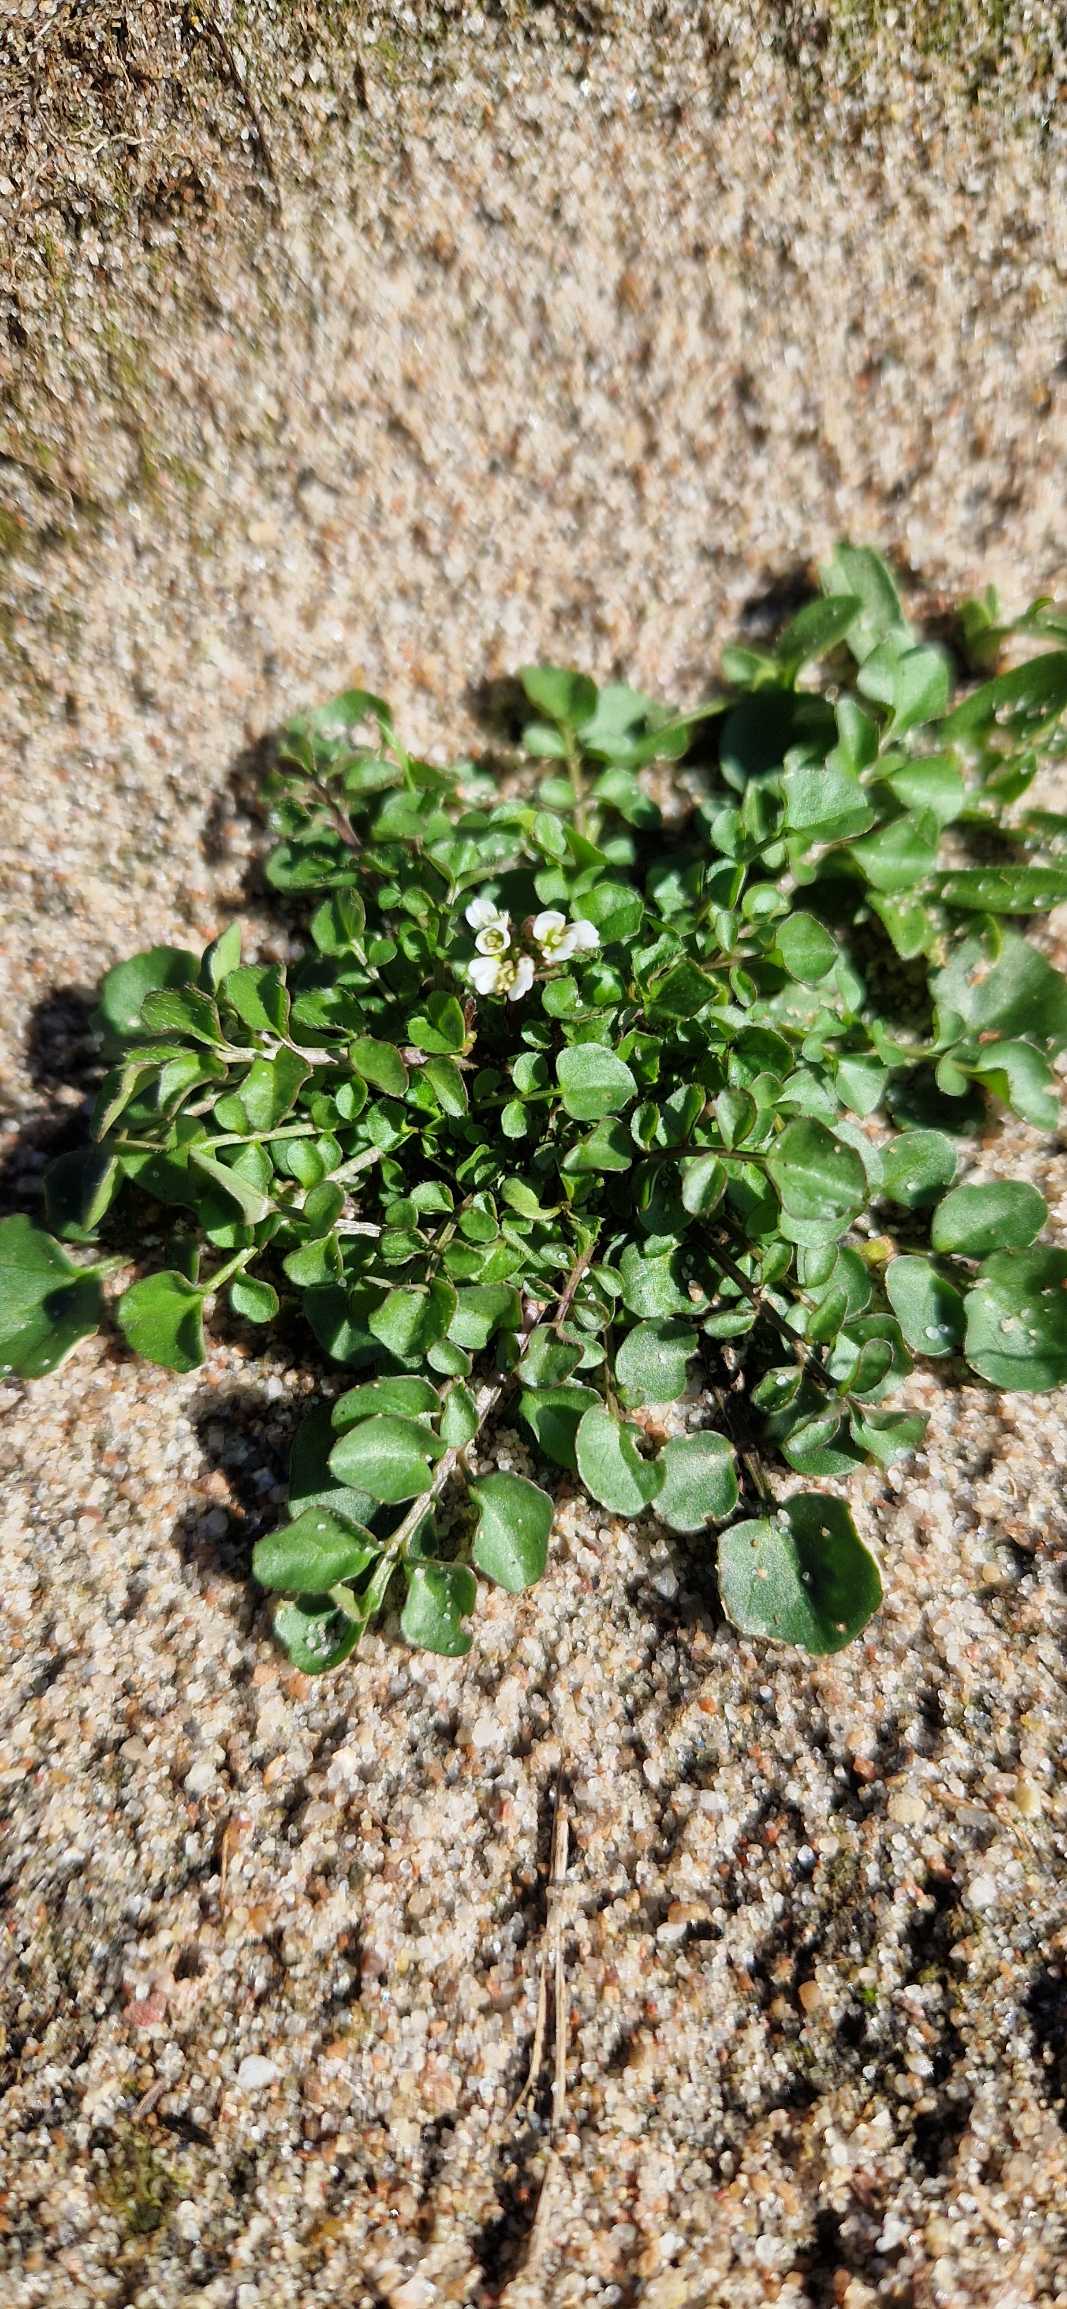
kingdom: Plantae
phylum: Tracheophyta
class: Magnoliopsida
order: Brassicales
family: Brassicaceae
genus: Cardamine
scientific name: Cardamine hirsuta
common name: Roset-springklap
